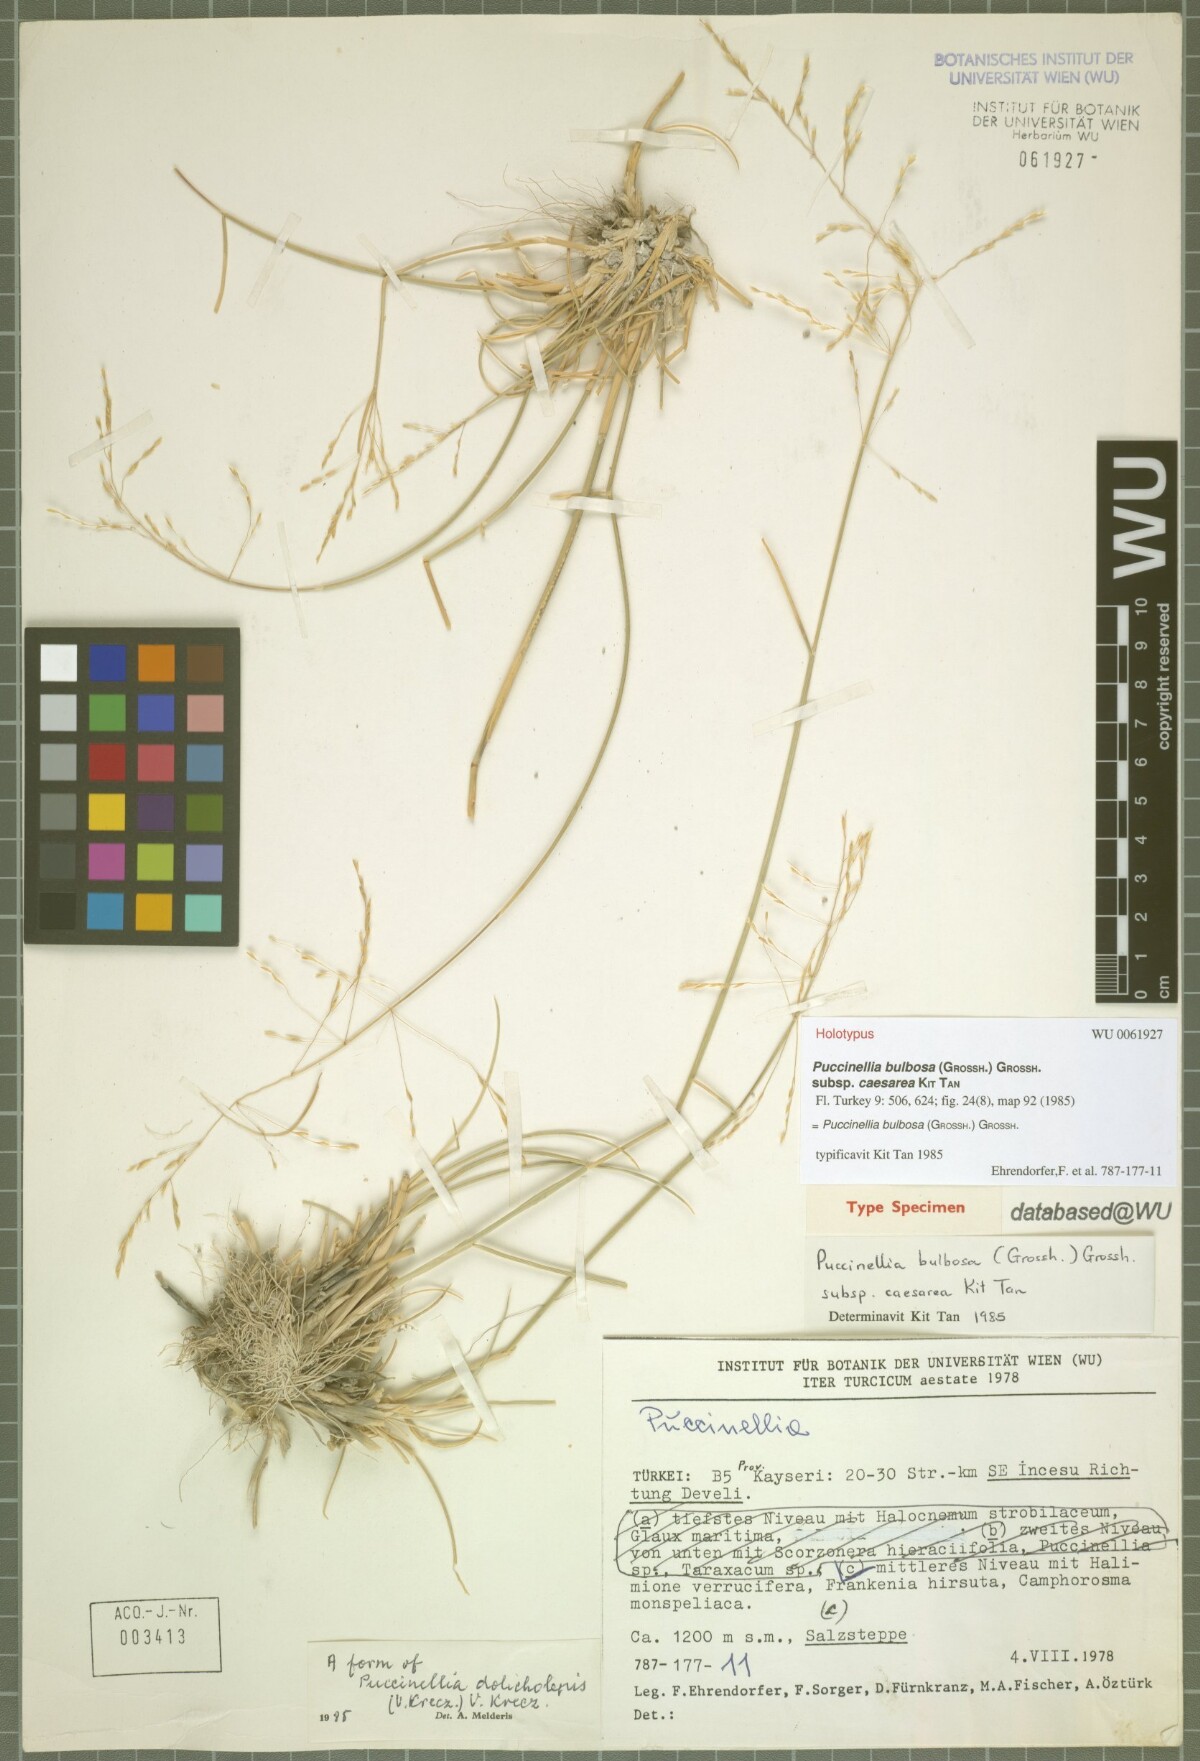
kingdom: Plantae
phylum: Tracheophyta
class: Liliopsida
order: Poales
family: Poaceae
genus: Puccinellia
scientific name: Puccinellia bulbosa
